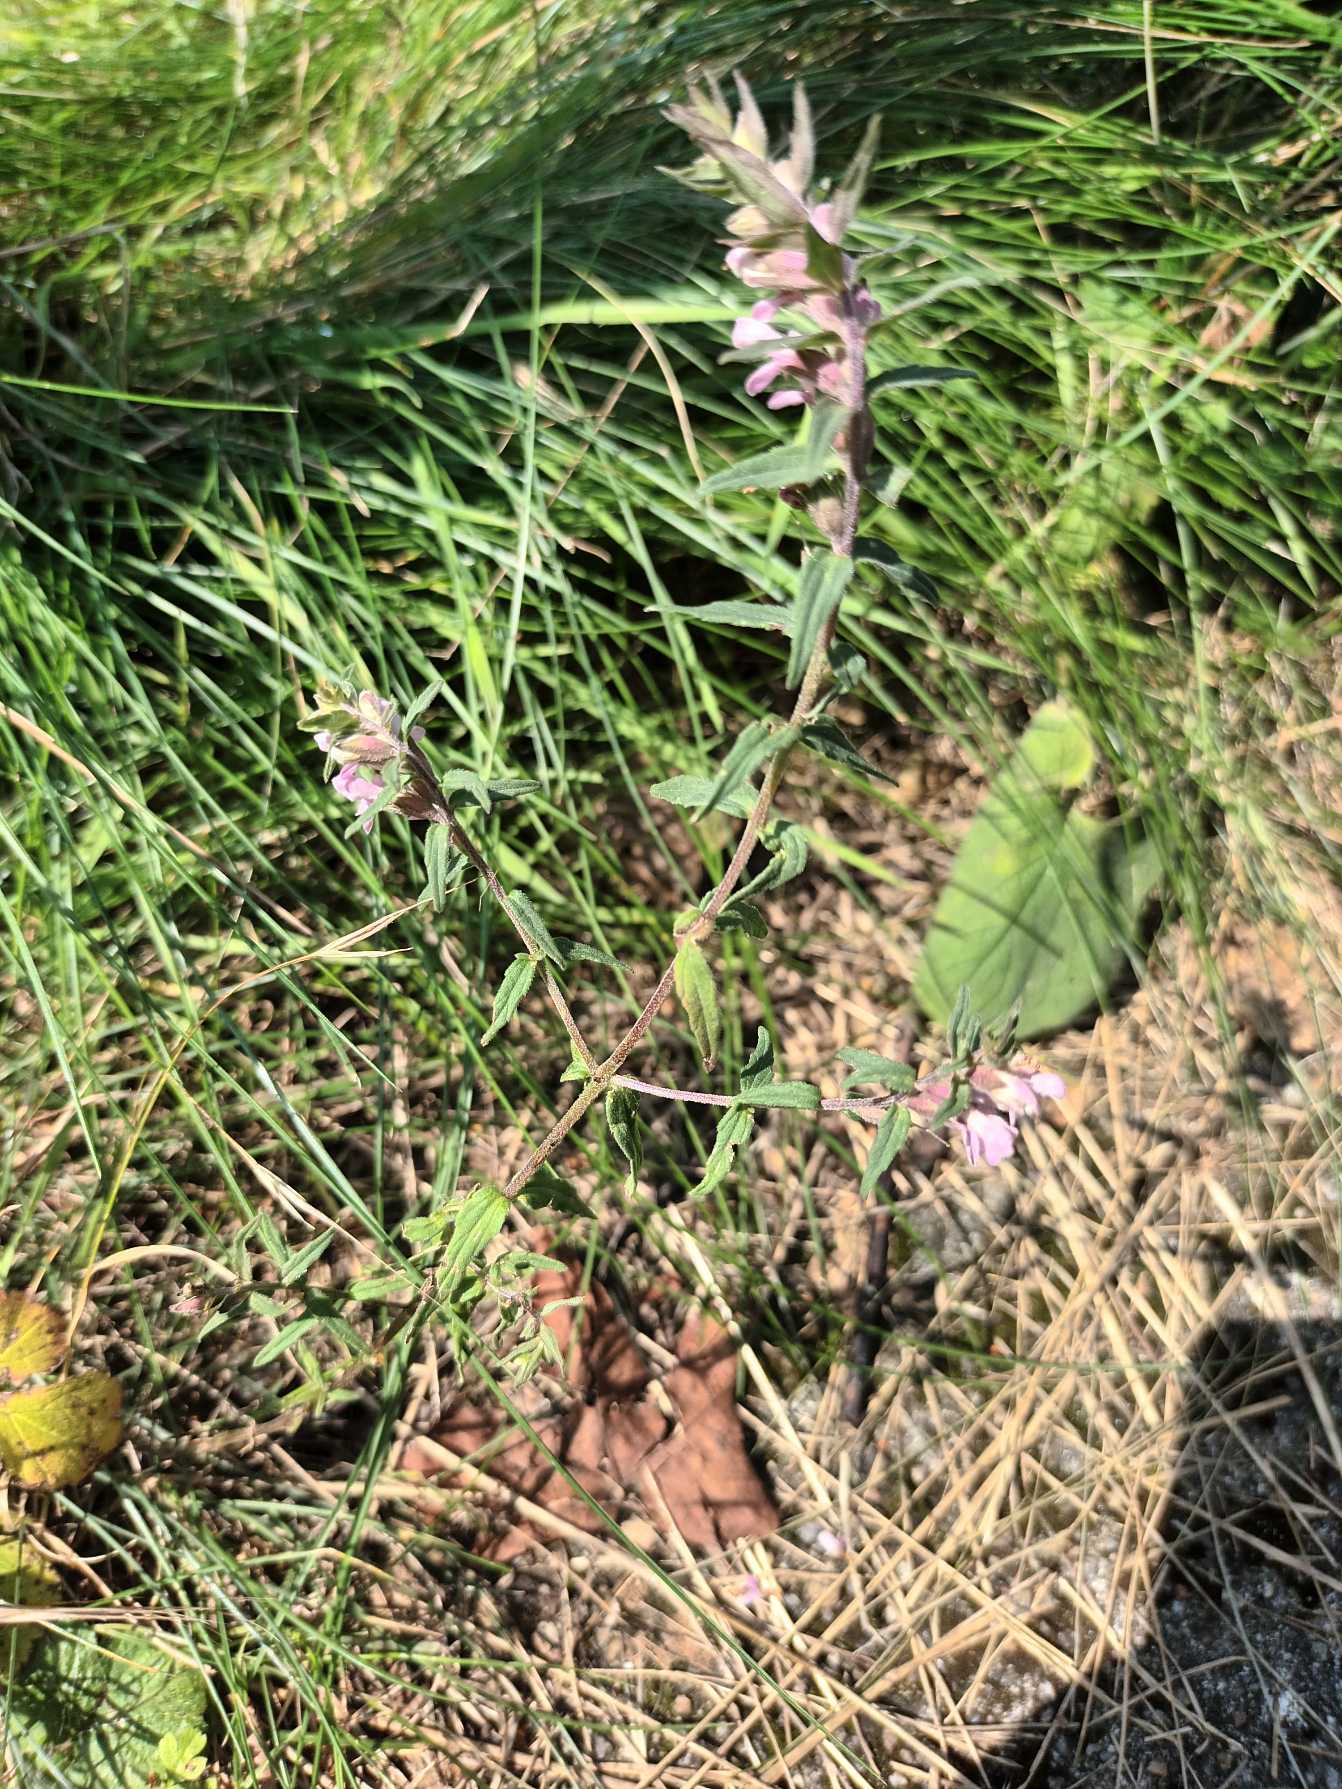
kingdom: Plantae
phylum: Tracheophyta
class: Magnoliopsida
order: Lamiales
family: Orobanchaceae
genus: Odontites
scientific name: Odontites vulgaris
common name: Høst-rødtop
